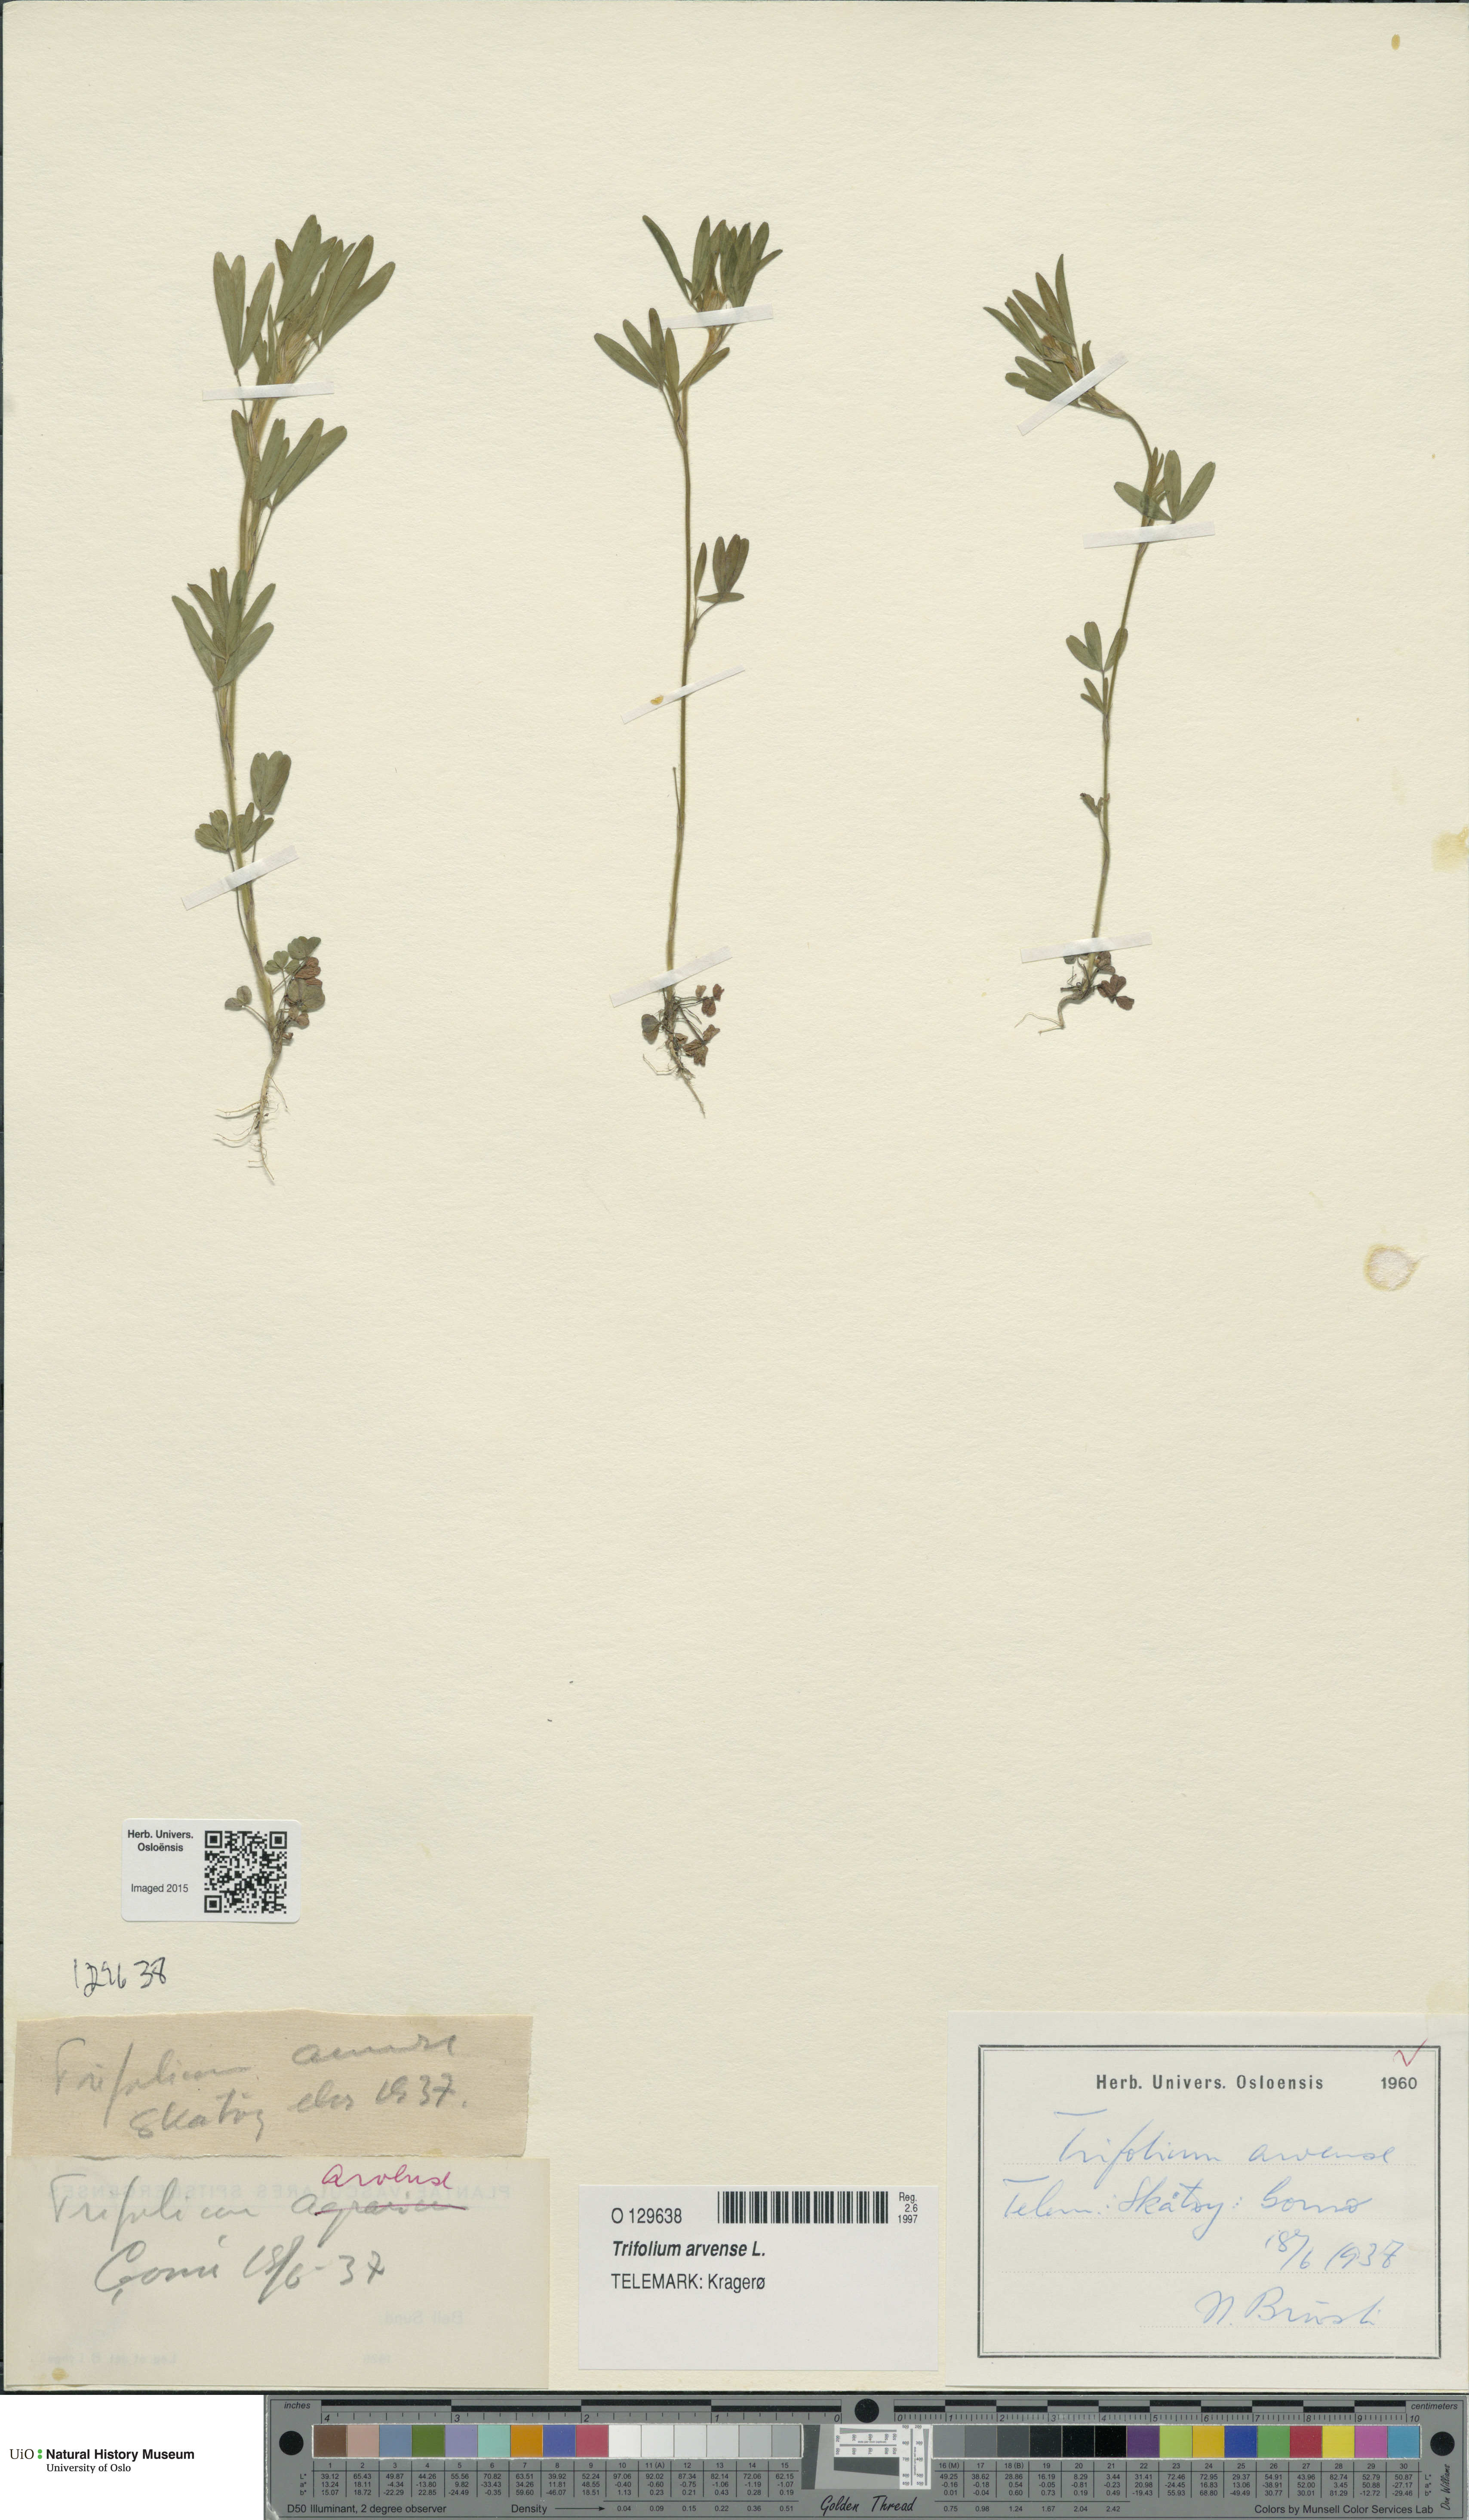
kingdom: Plantae
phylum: Tracheophyta
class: Magnoliopsida
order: Fabales
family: Fabaceae
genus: Trifolium
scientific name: Trifolium arvense
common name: Hare's-foot clover
